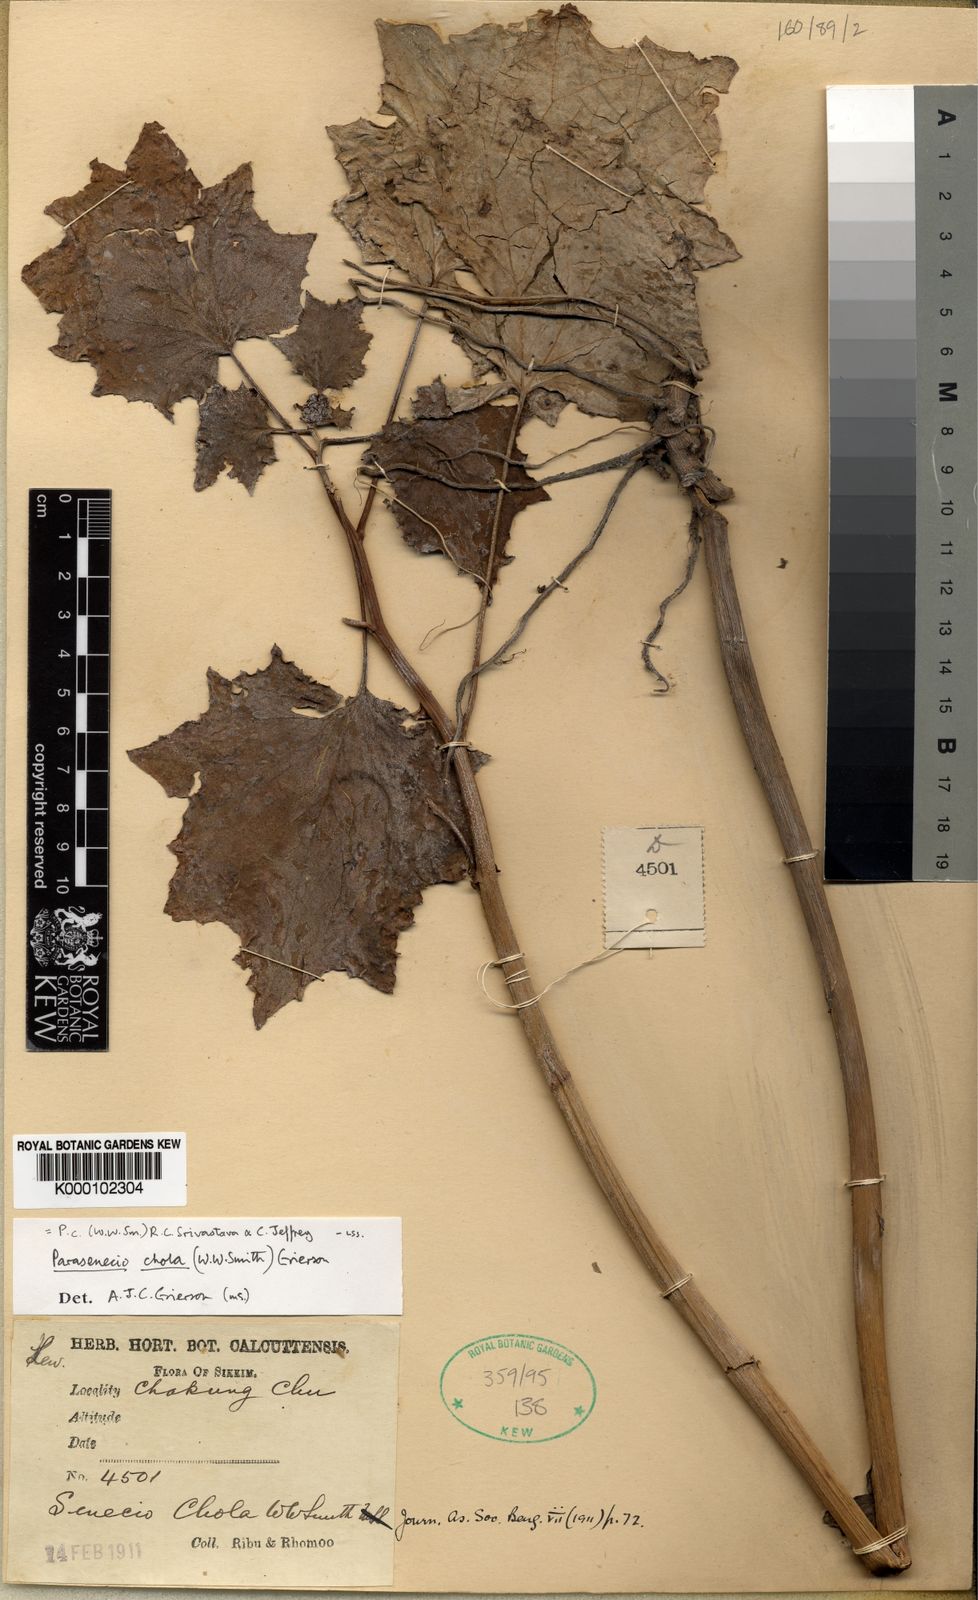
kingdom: Plantae
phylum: Tracheophyta
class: Magnoliopsida
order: Asterales
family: Asteraceae
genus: Parasenecio
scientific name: Parasenecio
